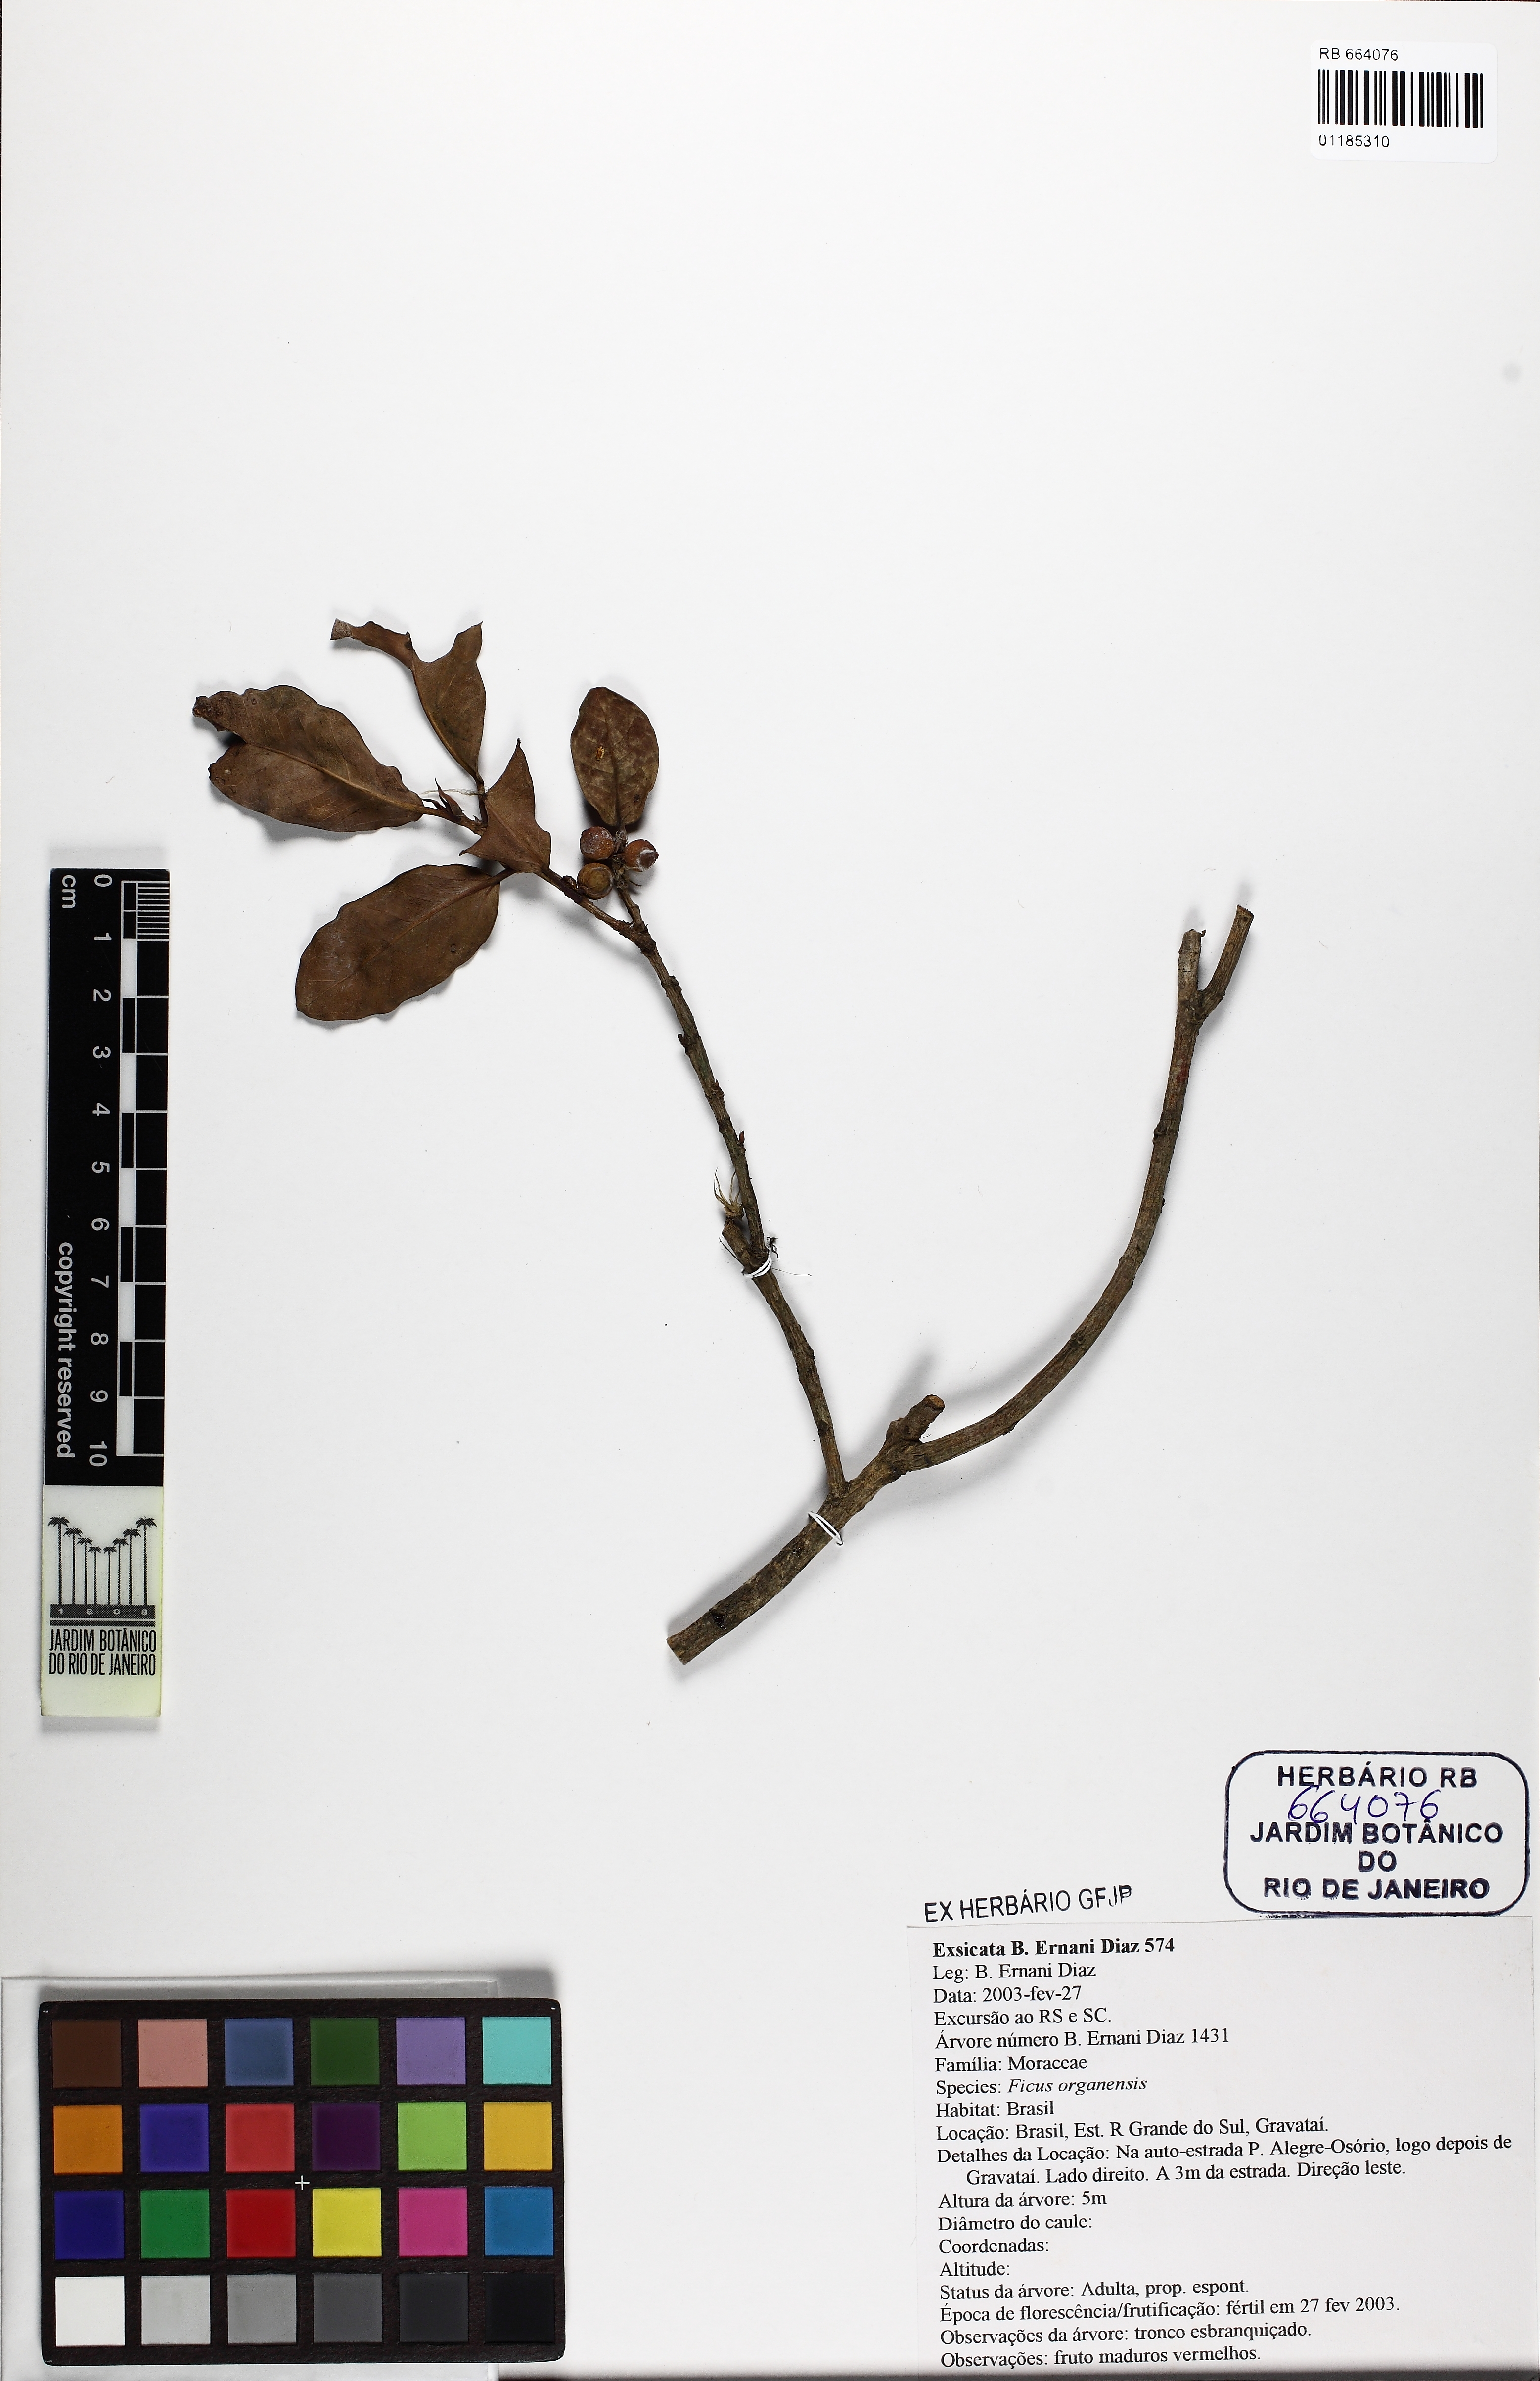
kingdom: Plantae
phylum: Tracheophyta
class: Magnoliopsida
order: Rosales
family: Moraceae
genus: Ficus
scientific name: Ficus organensis
